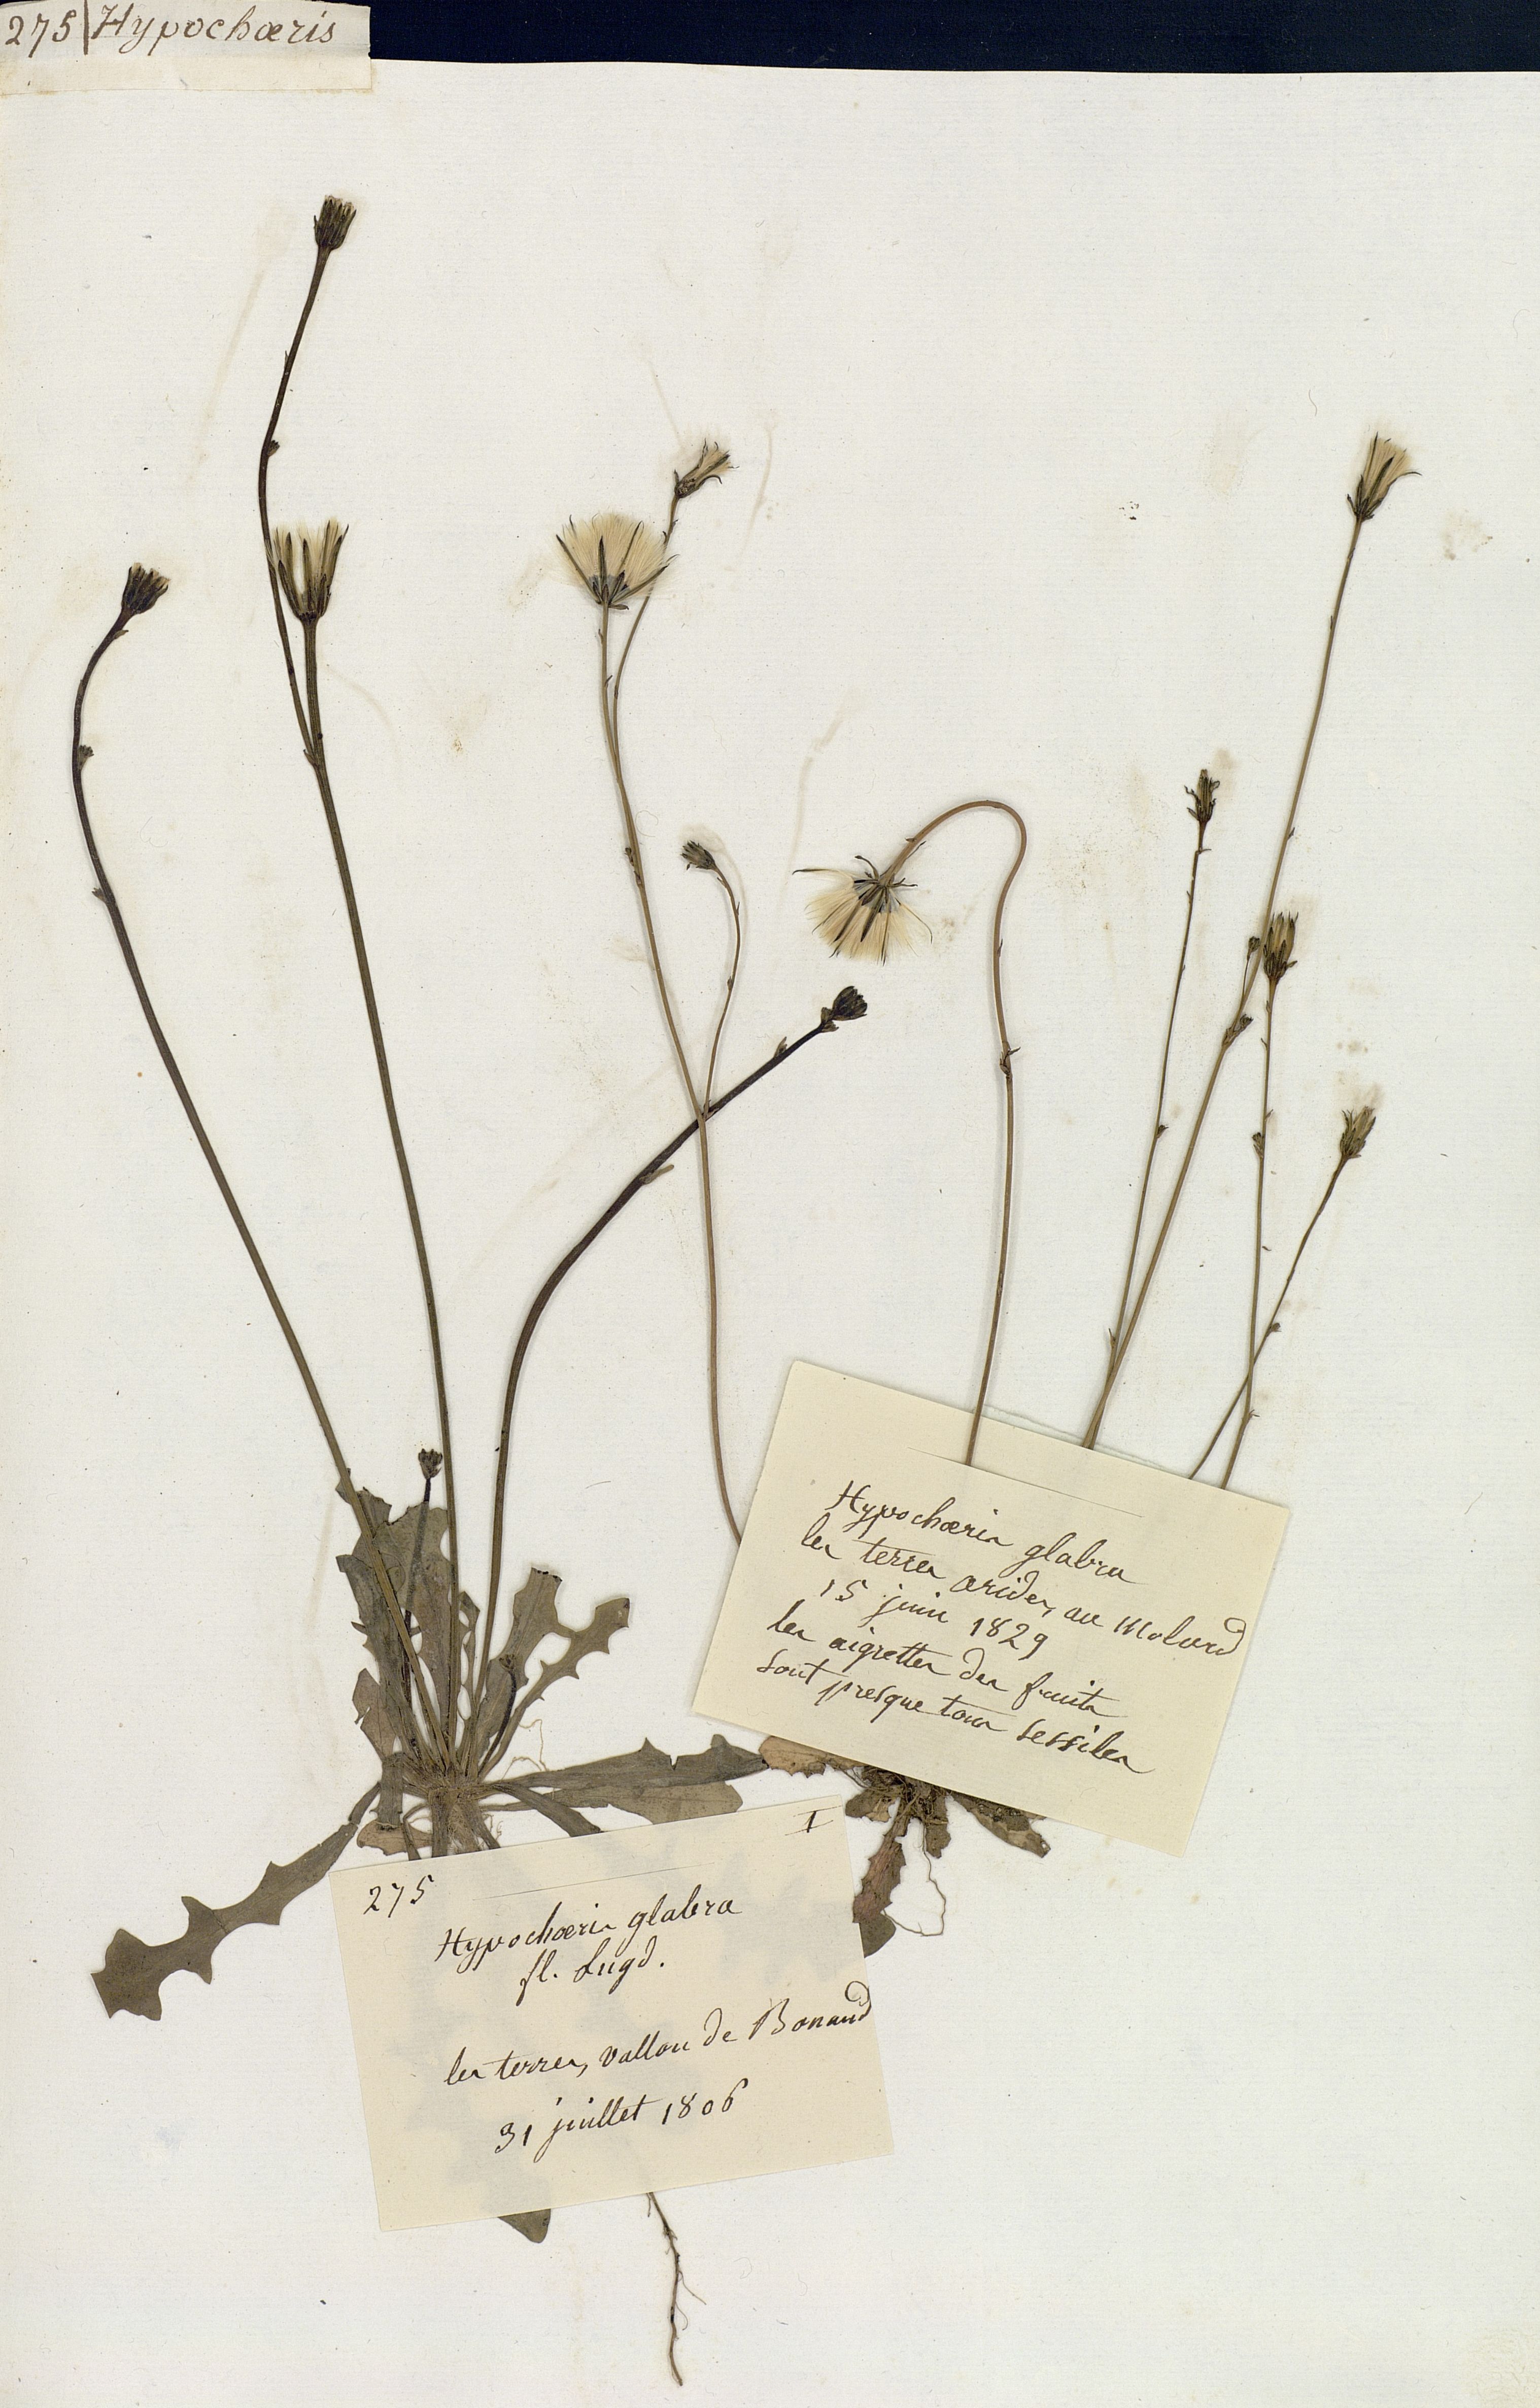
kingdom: Plantae
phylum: Tracheophyta
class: Magnoliopsida
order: Asterales
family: Asteraceae
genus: Hypochaeris
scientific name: Hypochaeris glabra
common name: Smooth catsear
